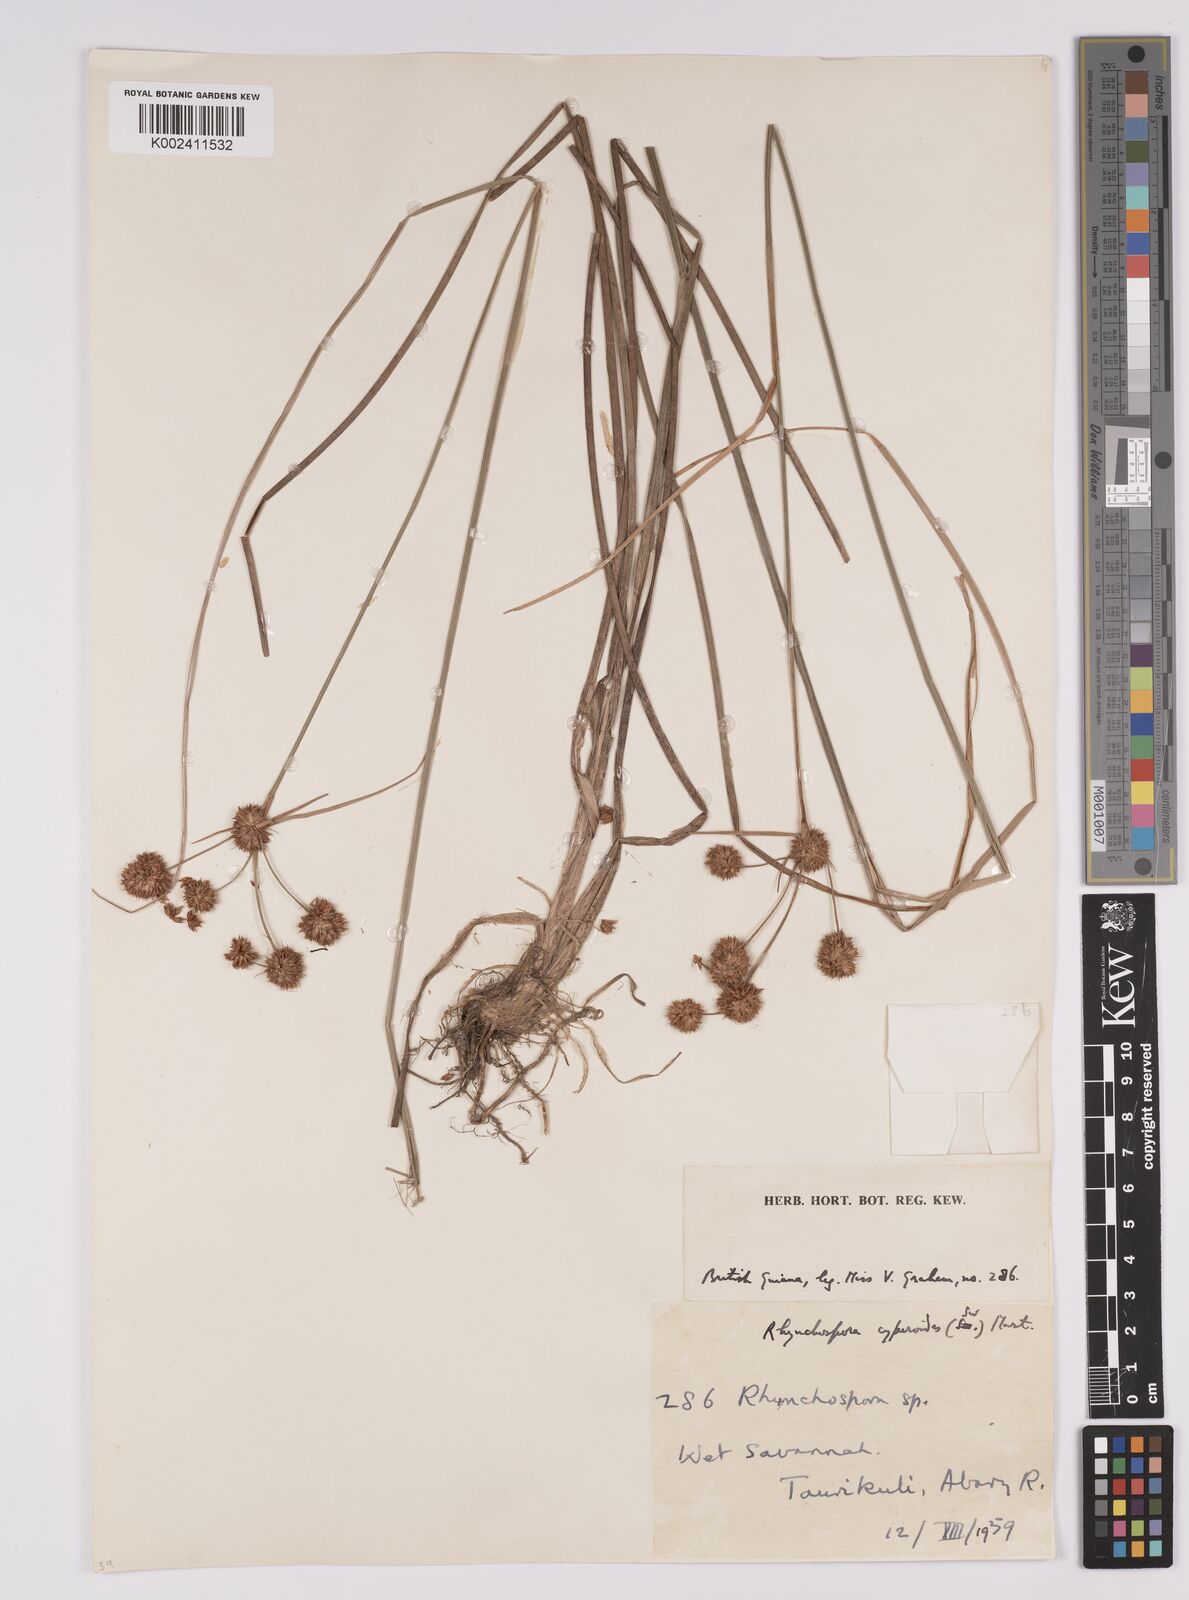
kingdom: Plantae
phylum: Tracheophyta
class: Liliopsida
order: Poales
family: Cyperaceae
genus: Rhynchospora
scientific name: Rhynchospora holoschoenoides
